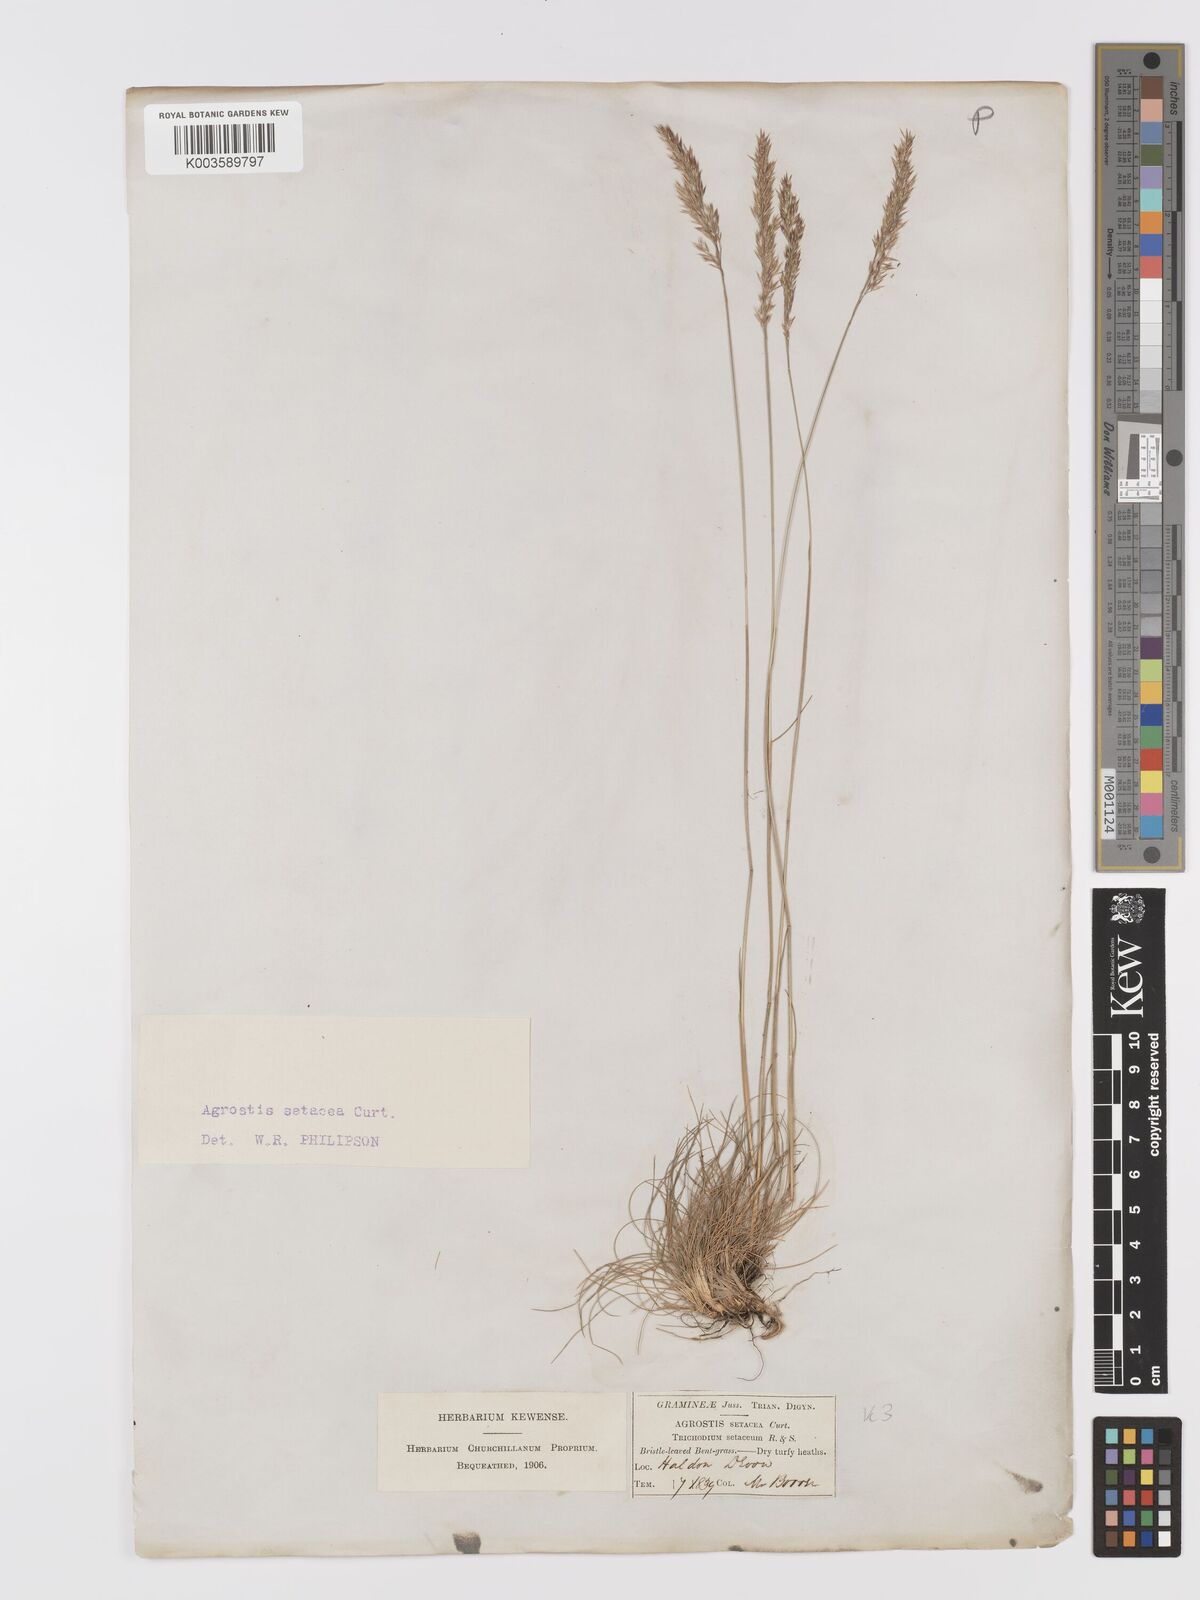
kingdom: Plantae
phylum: Tracheophyta
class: Liliopsida
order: Poales
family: Poaceae
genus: Alpagrostis
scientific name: Alpagrostis setacea
